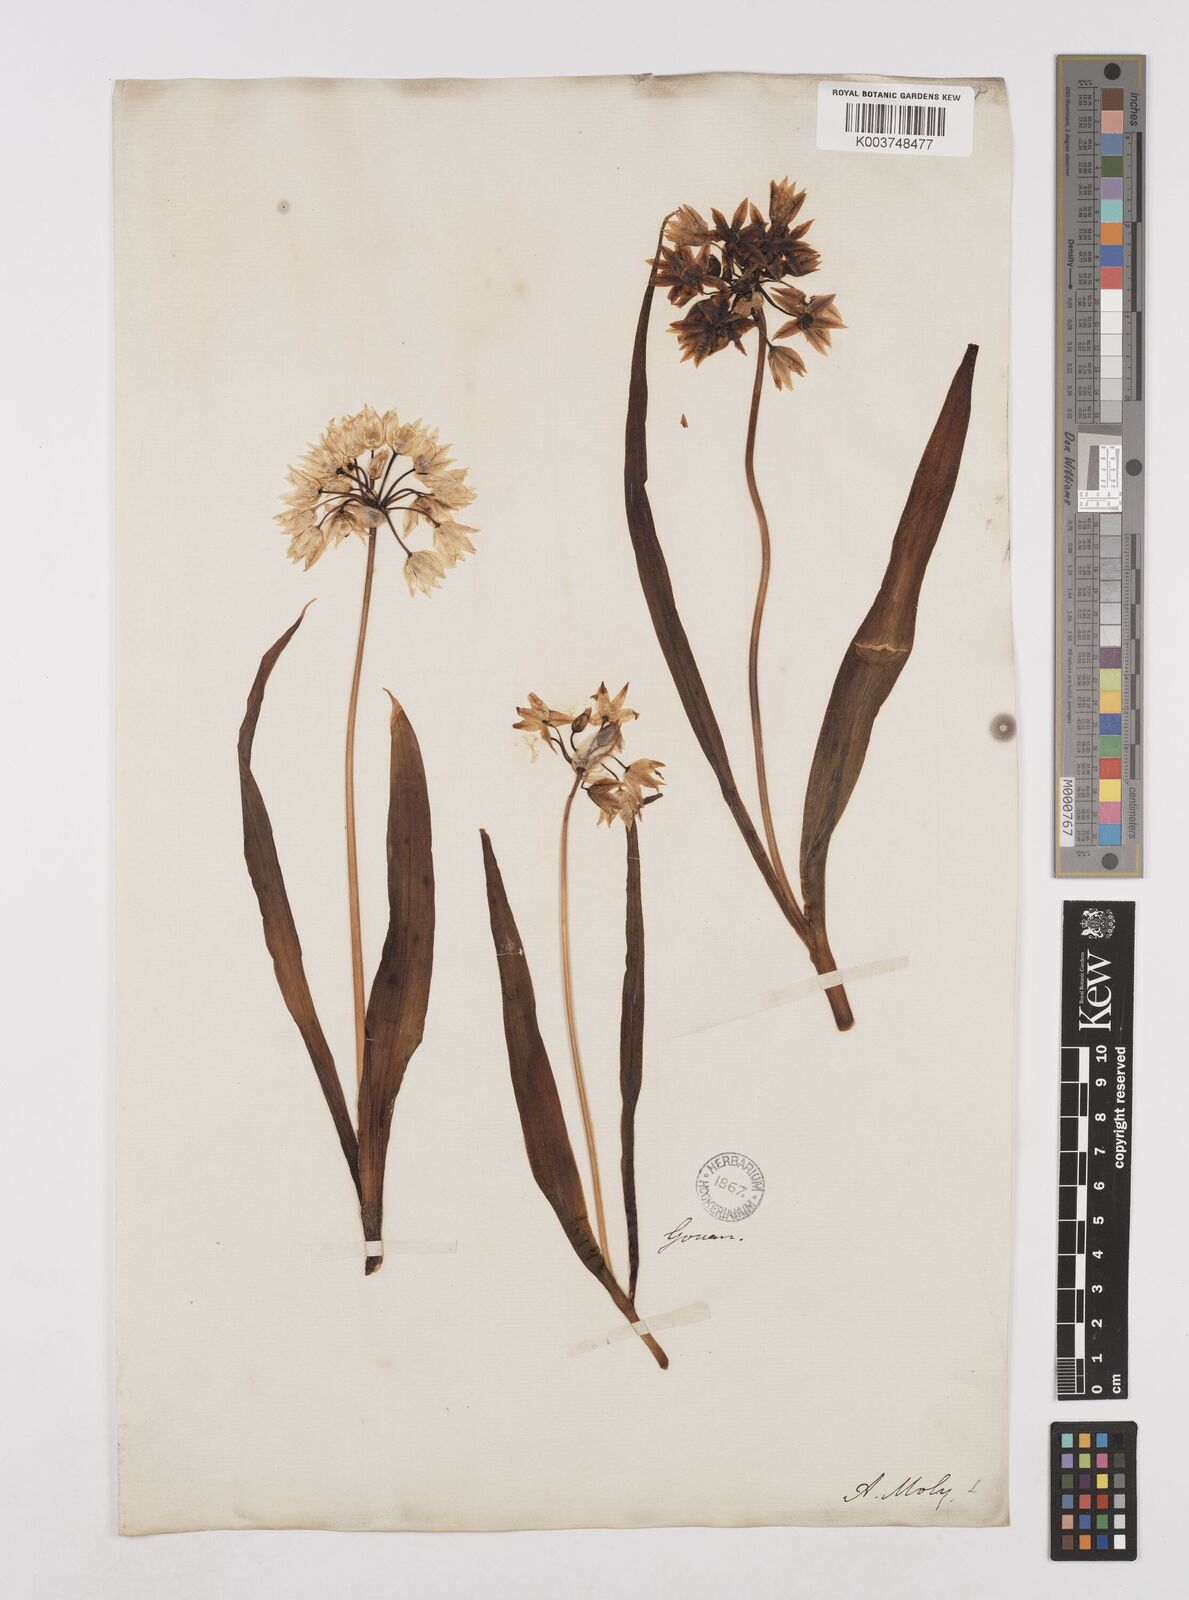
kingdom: Plantae
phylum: Tracheophyta
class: Liliopsida
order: Asparagales
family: Amaryllidaceae
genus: Allium
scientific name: Allium moly
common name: Yellow garlic
